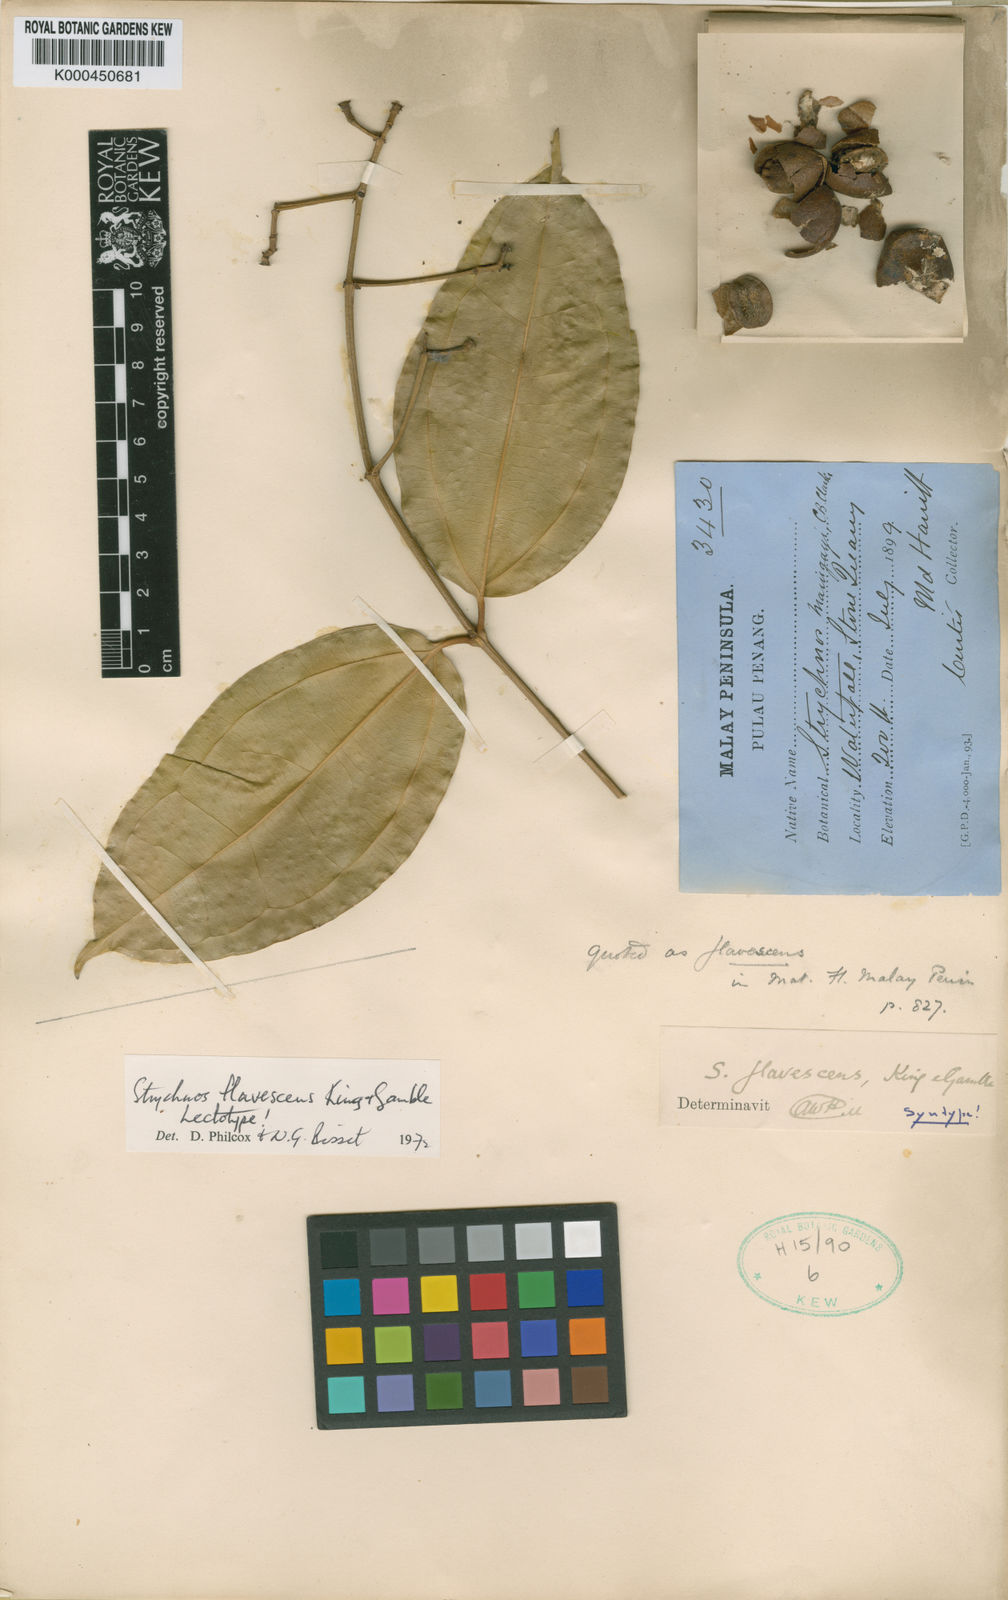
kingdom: Plantae
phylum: Tracheophyta
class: Magnoliopsida
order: Gentianales
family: Loganiaceae
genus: Strychnos
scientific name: Strychnos flavescens
